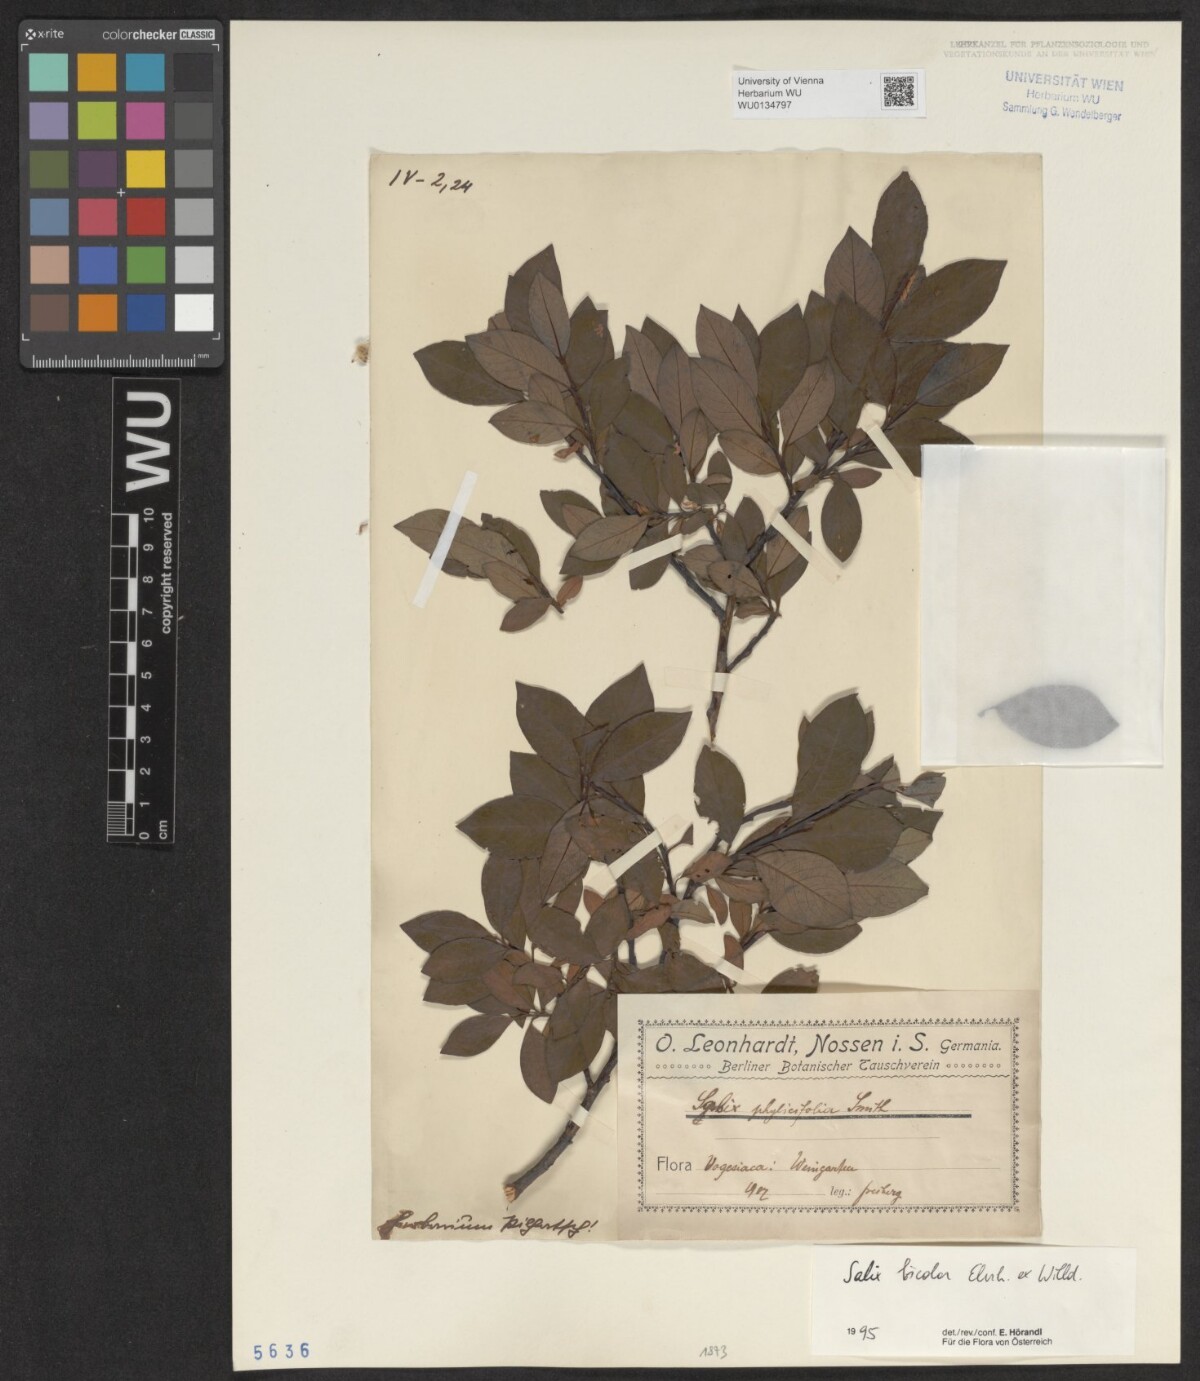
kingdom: Plantae
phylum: Tracheophyta
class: Magnoliopsida
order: Malpighiales
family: Salicaceae
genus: Salix
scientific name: Salix bicolor
